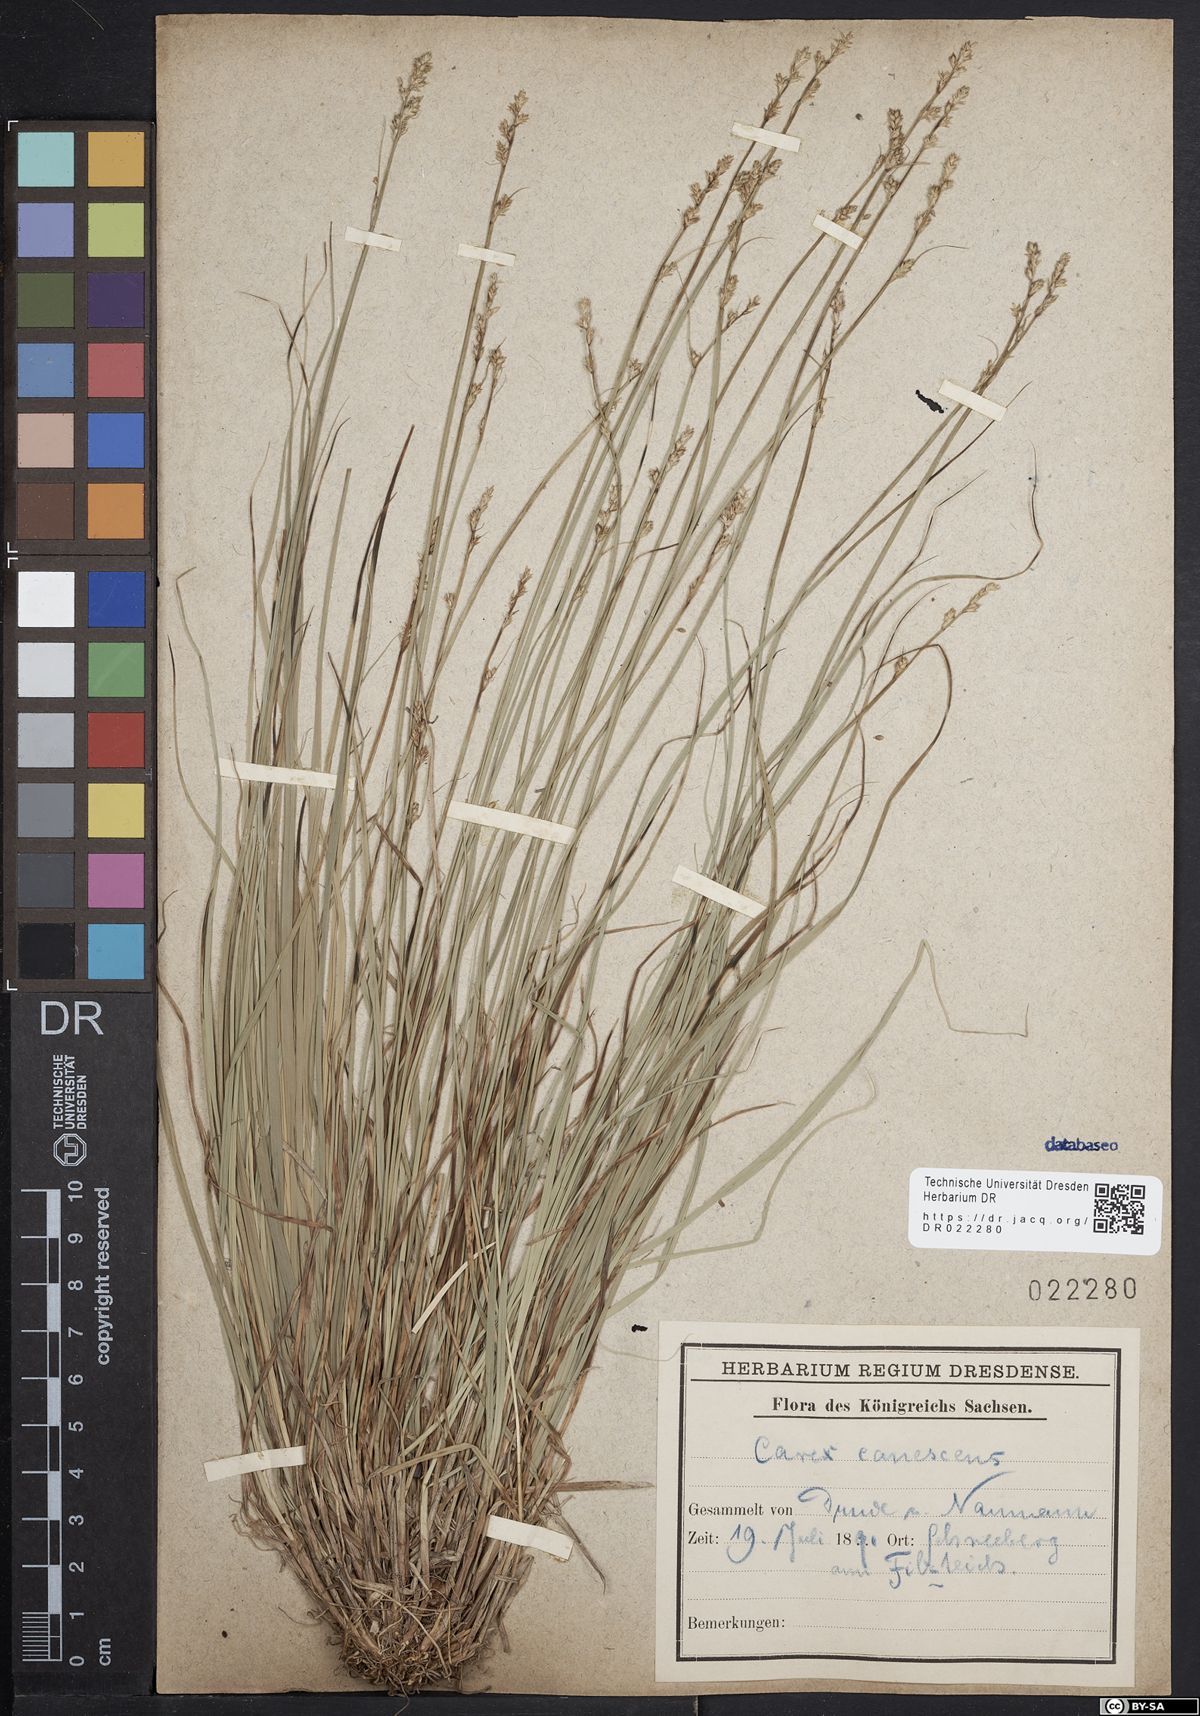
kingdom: Plantae
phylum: Tracheophyta
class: Liliopsida
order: Poales
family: Cyperaceae
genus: Carex
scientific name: Carex canescens
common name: White sedge
